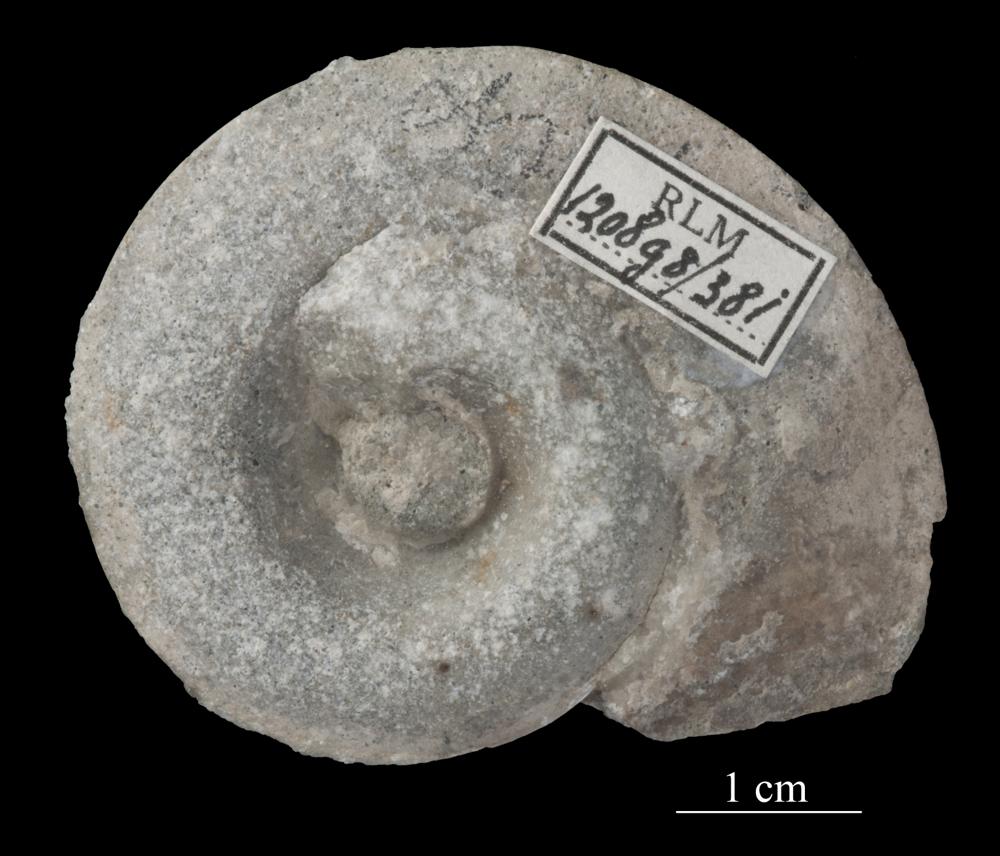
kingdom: Animalia
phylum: Mollusca
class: Gastropoda
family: Lesueurillidae
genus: Pararaphistoma
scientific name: Pararaphistoma Helicites qualteriata
